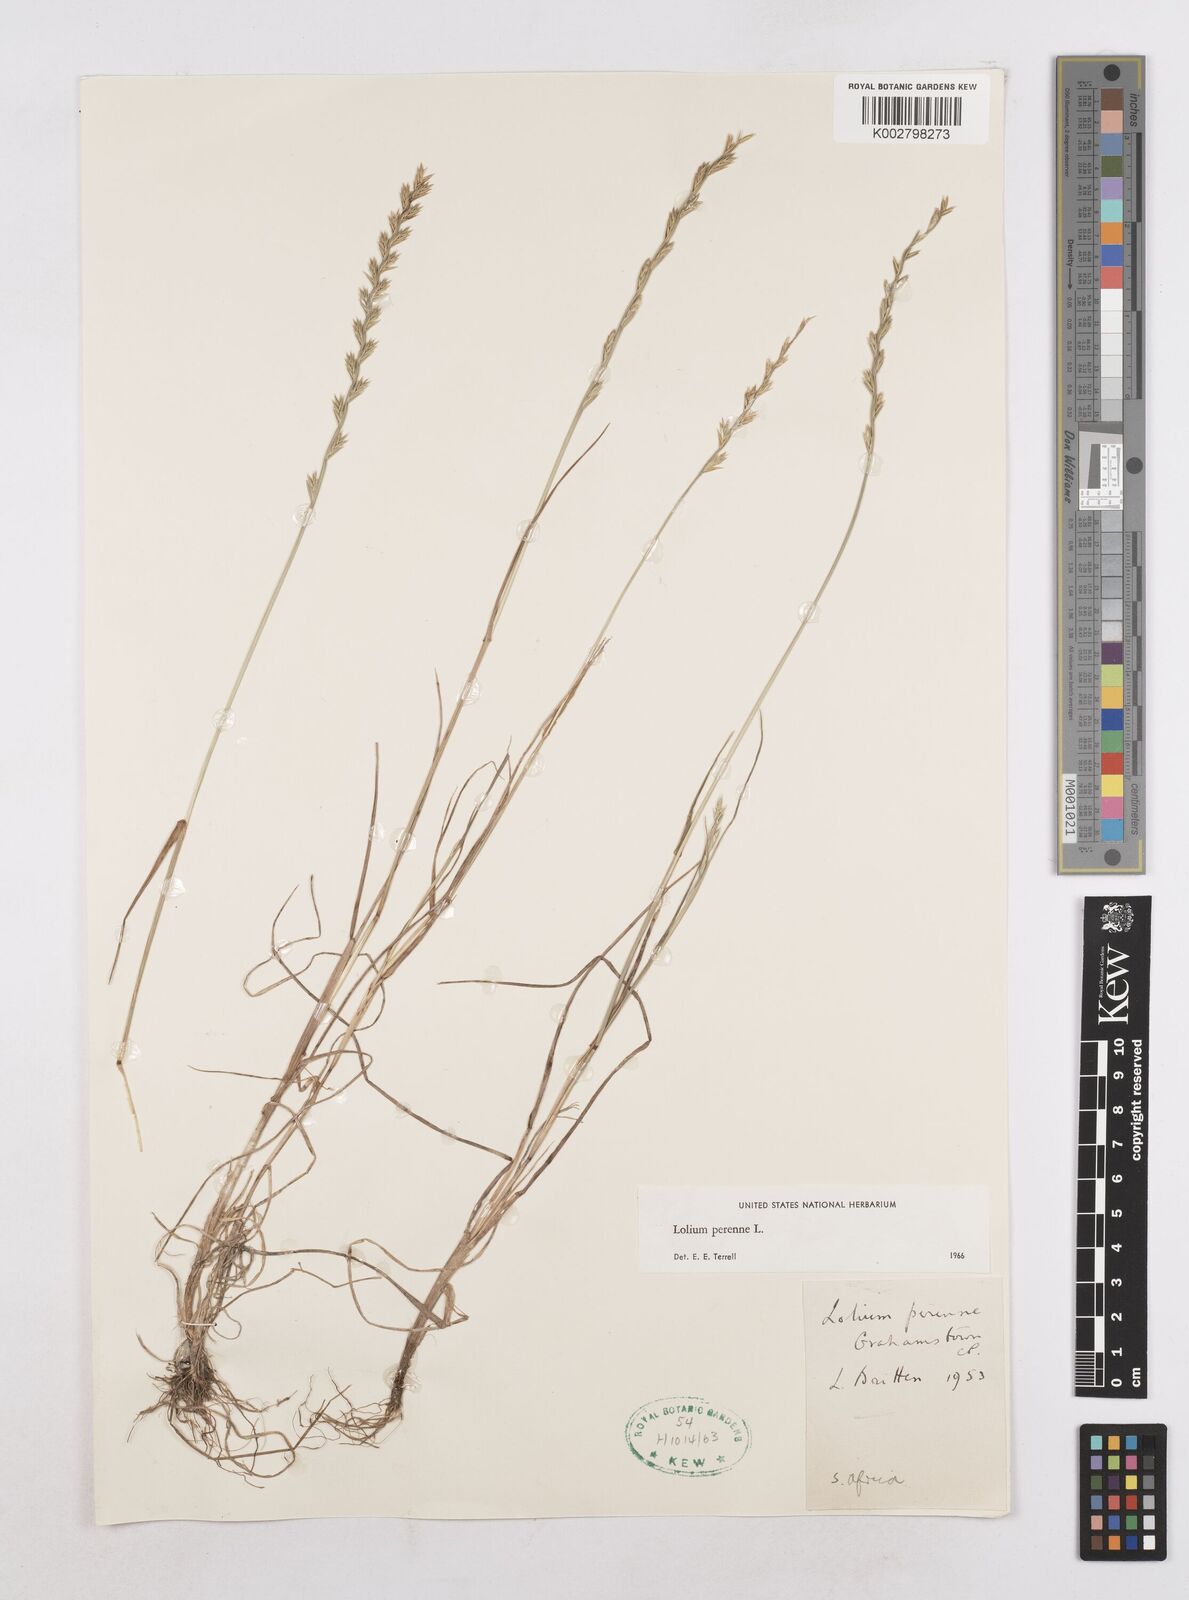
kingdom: Plantae
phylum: Tracheophyta
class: Liliopsida
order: Poales
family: Poaceae
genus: Lolium
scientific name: Lolium perenne
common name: Perennial ryegrass
